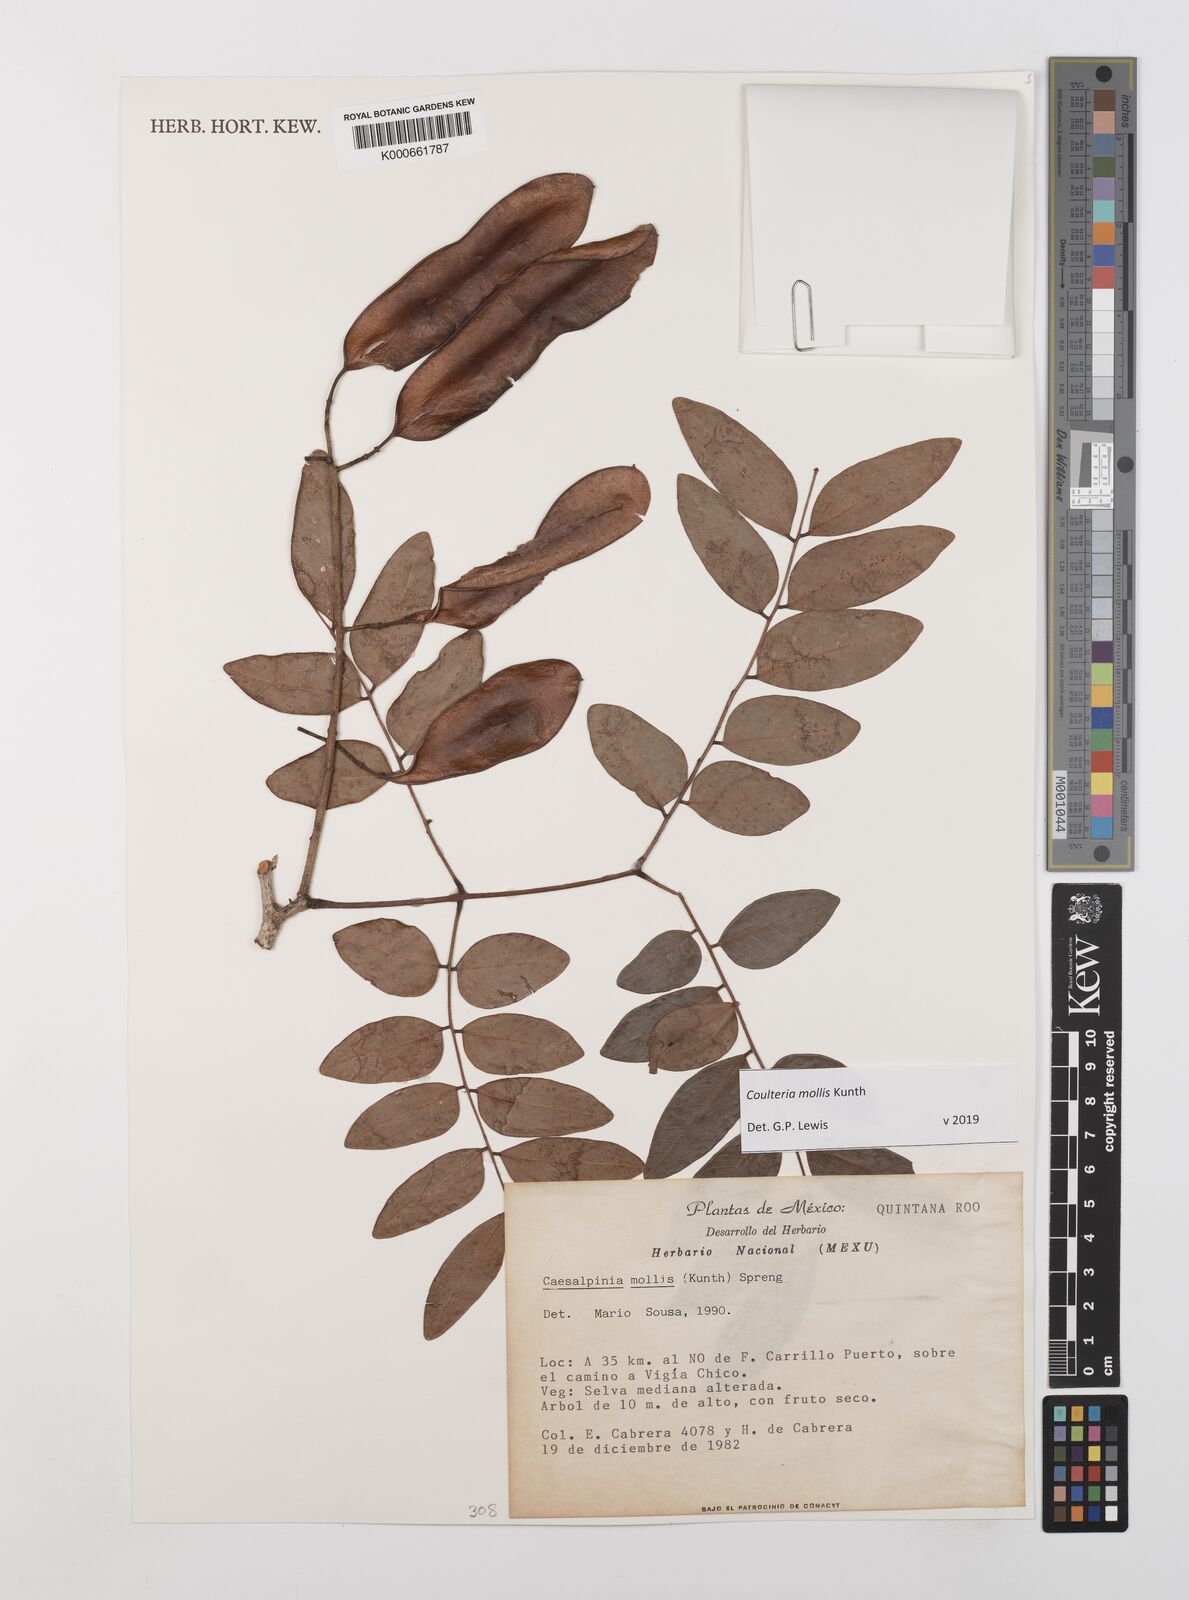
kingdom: Plantae
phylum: Tracheophyta
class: Magnoliopsida
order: Fabales
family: Fabaceae
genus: Coulteria
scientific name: Coulteria mollis
